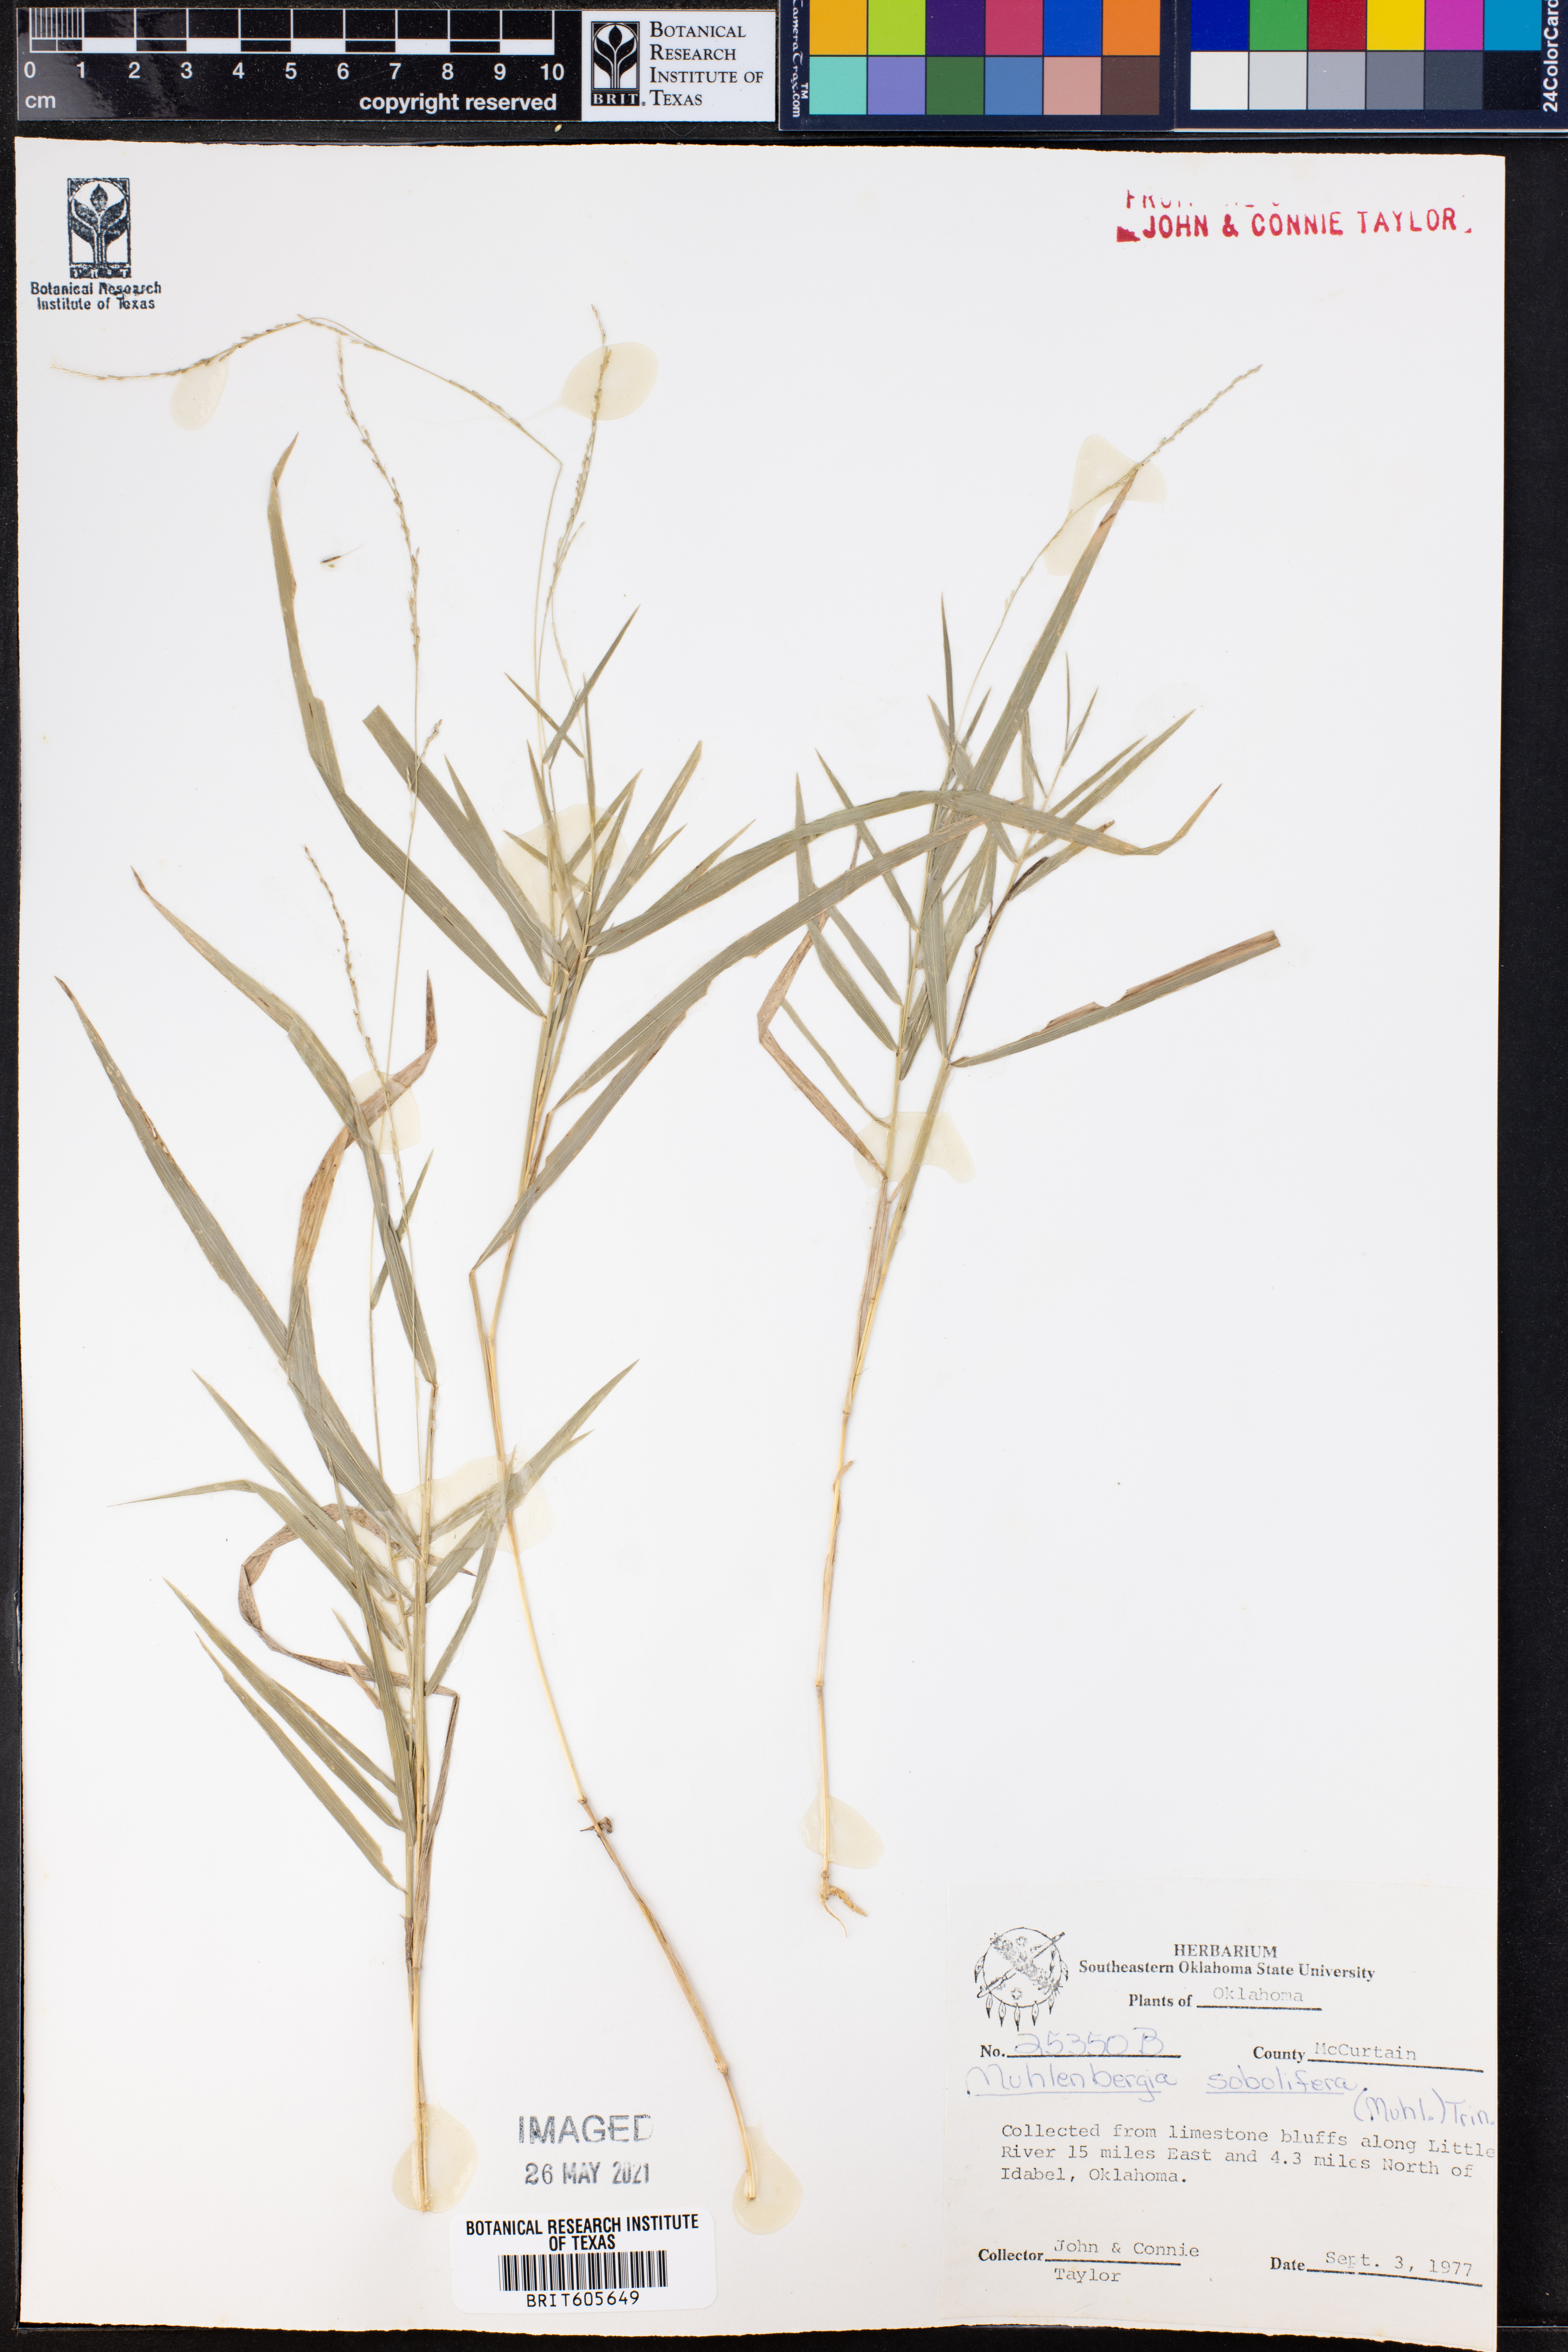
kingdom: Plantae
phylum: Tracheophyta
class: Liliopsida
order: Poales
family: Poaceae
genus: Muhlenbergia
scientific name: Muhlenbergia sobolifera
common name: Creeping muhly
